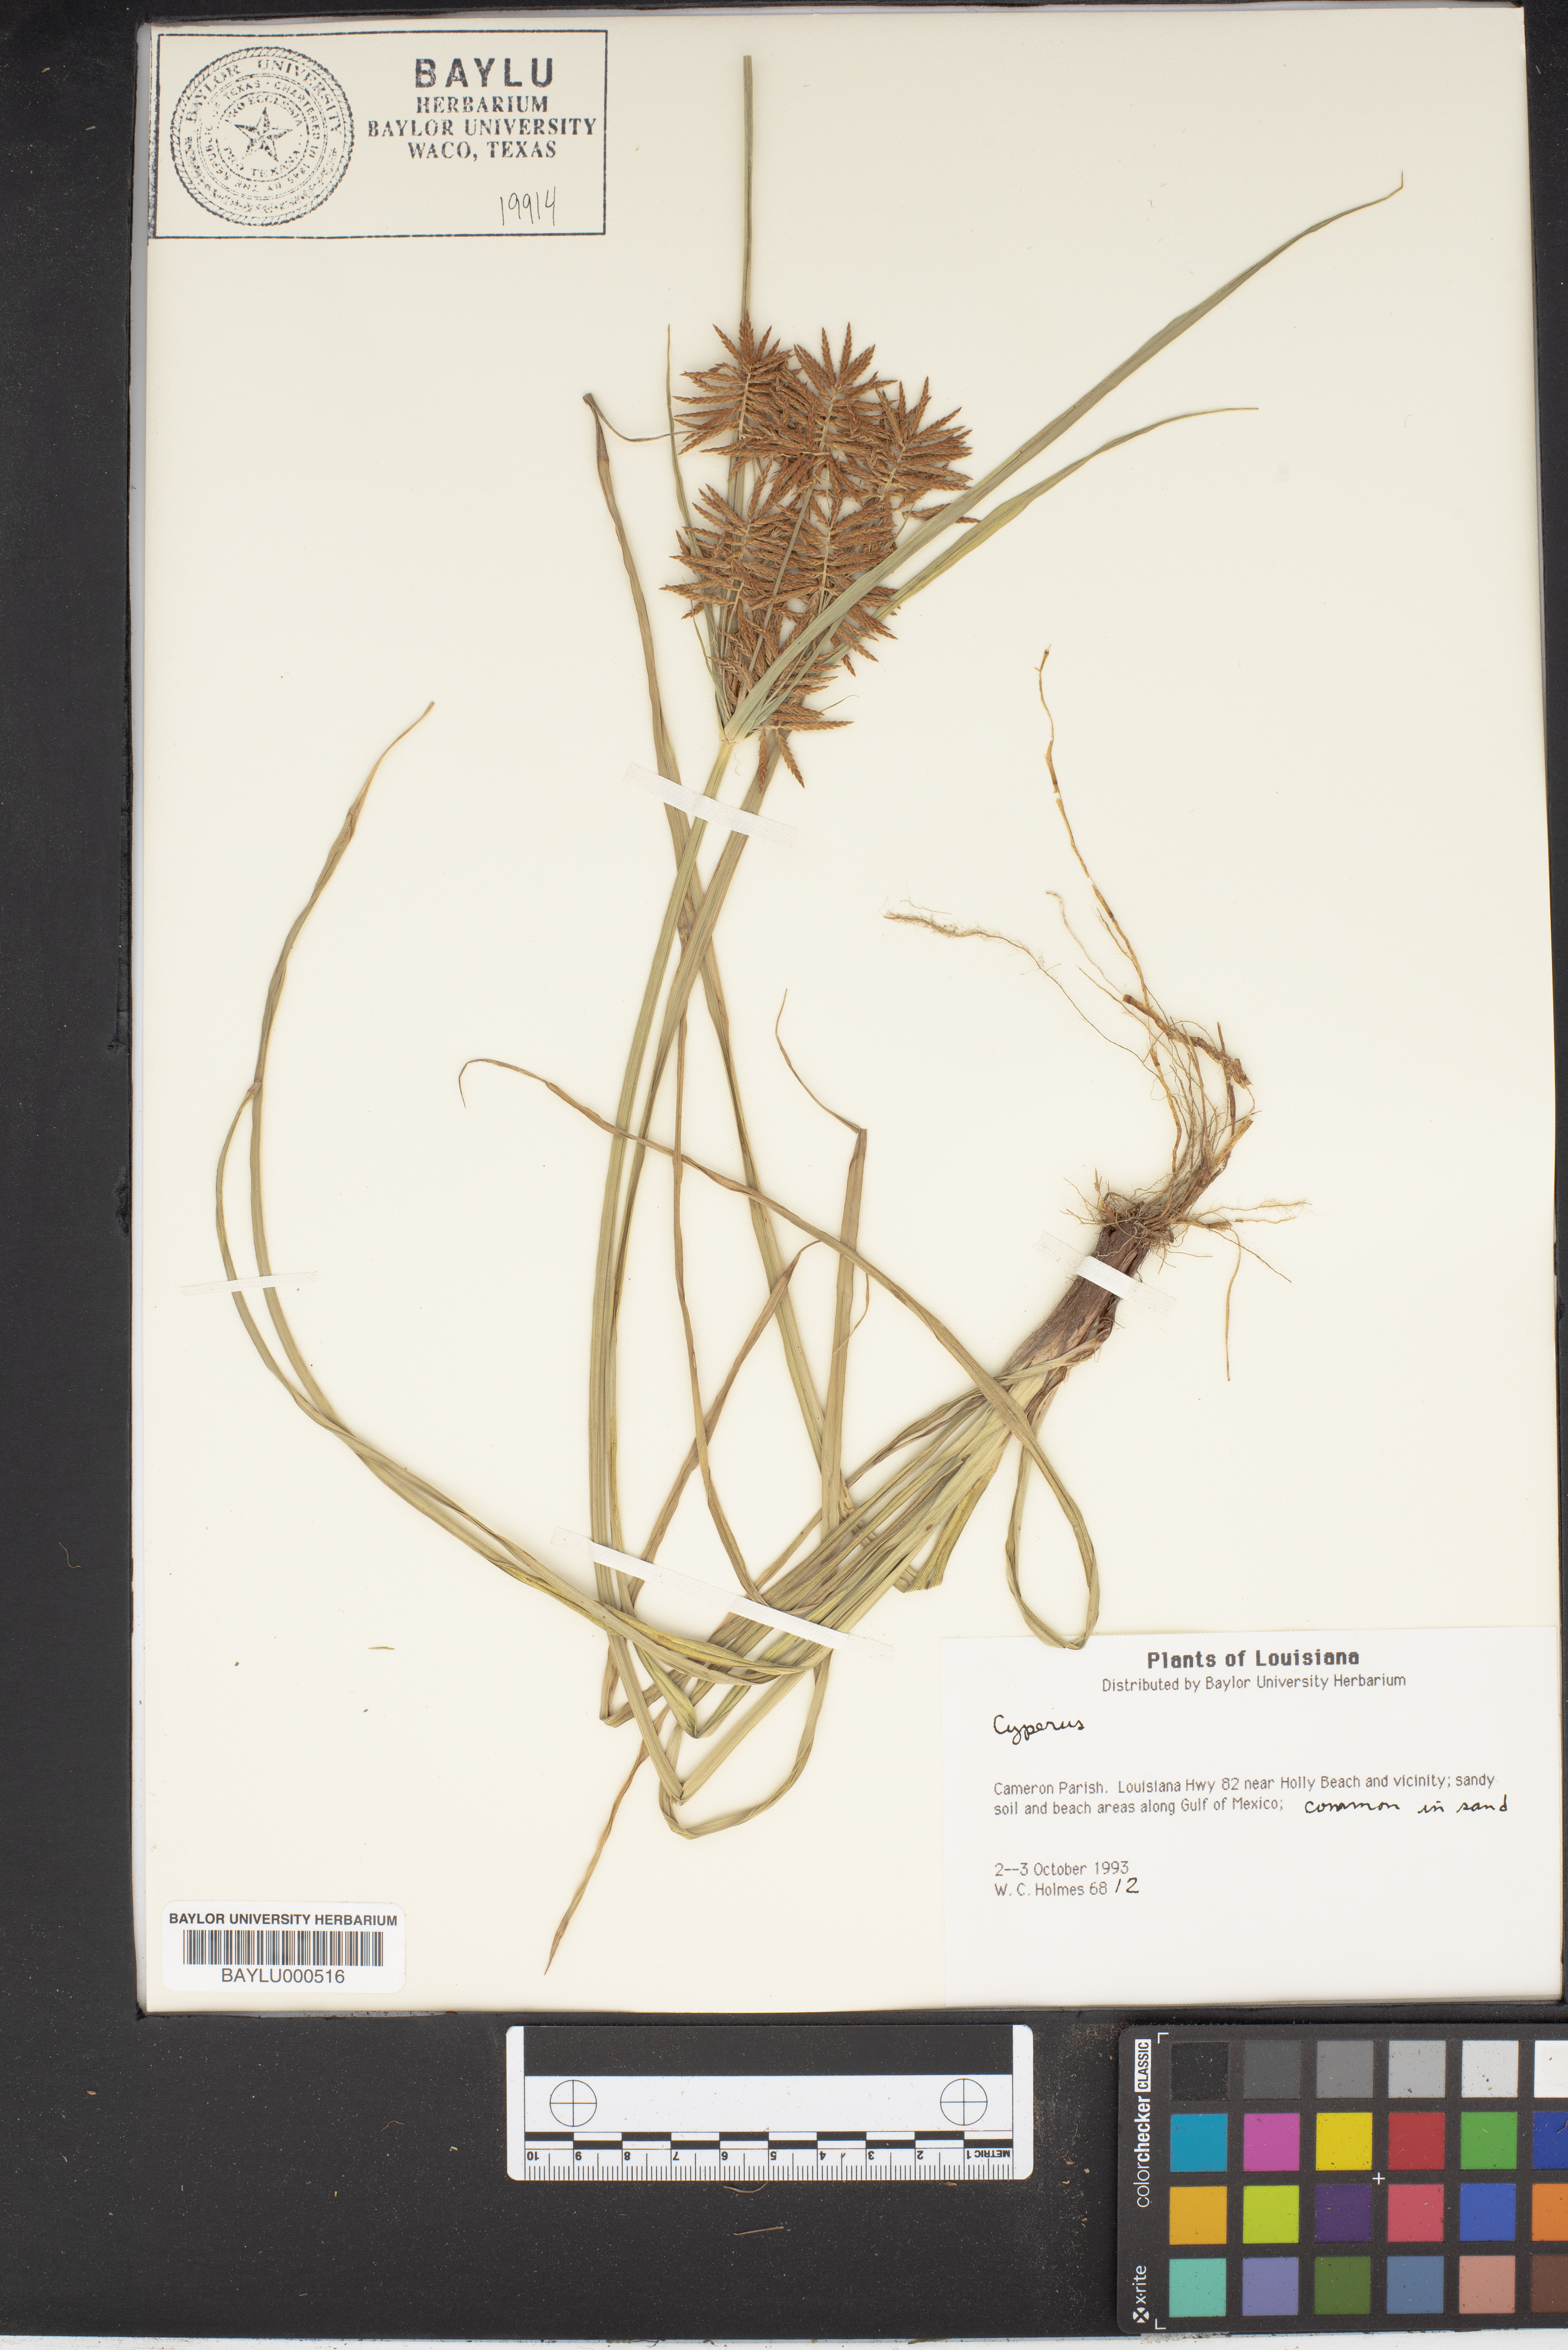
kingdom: Plantae
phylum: Tracheophyta
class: Liliopsida
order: Poales
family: Cyperaceae
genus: Cyperus
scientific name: Cyperus
